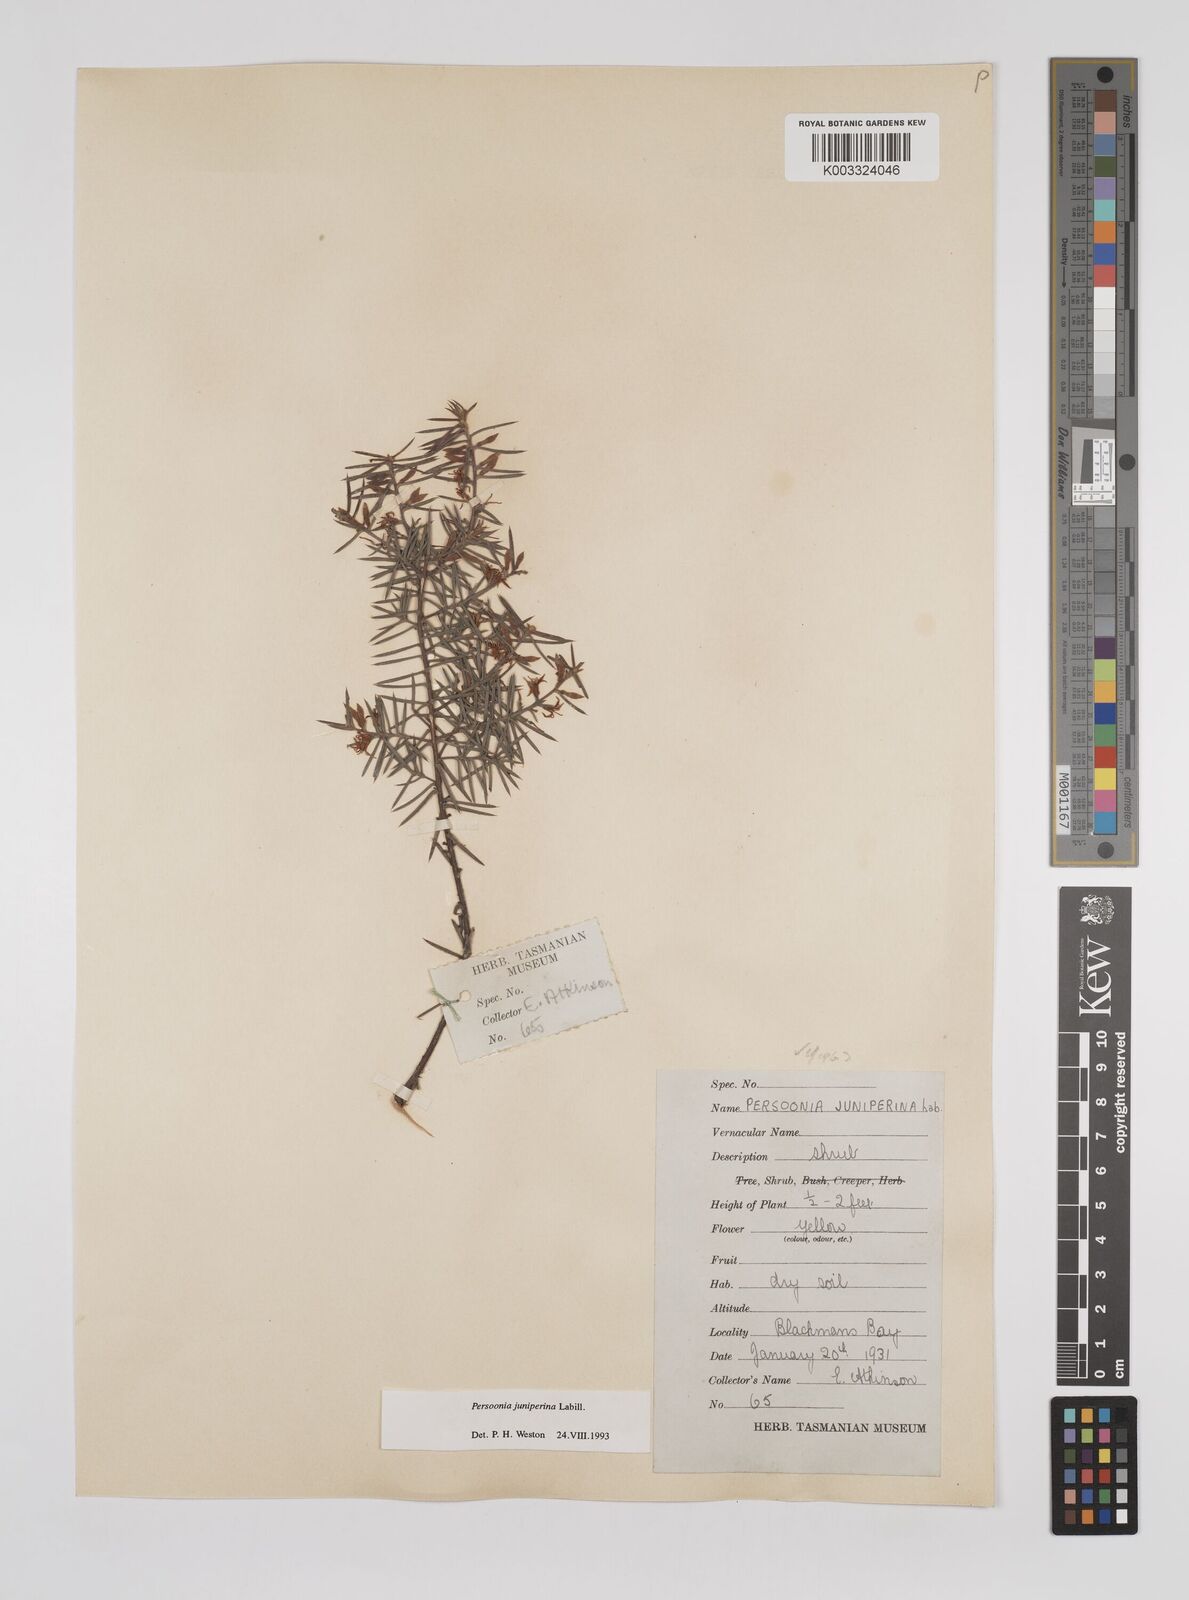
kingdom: Plantae
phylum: Tracheophyta
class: Magnoliopsida
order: Proteales
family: Proteaceae
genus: Persoonia
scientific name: Persoonia juniperina
